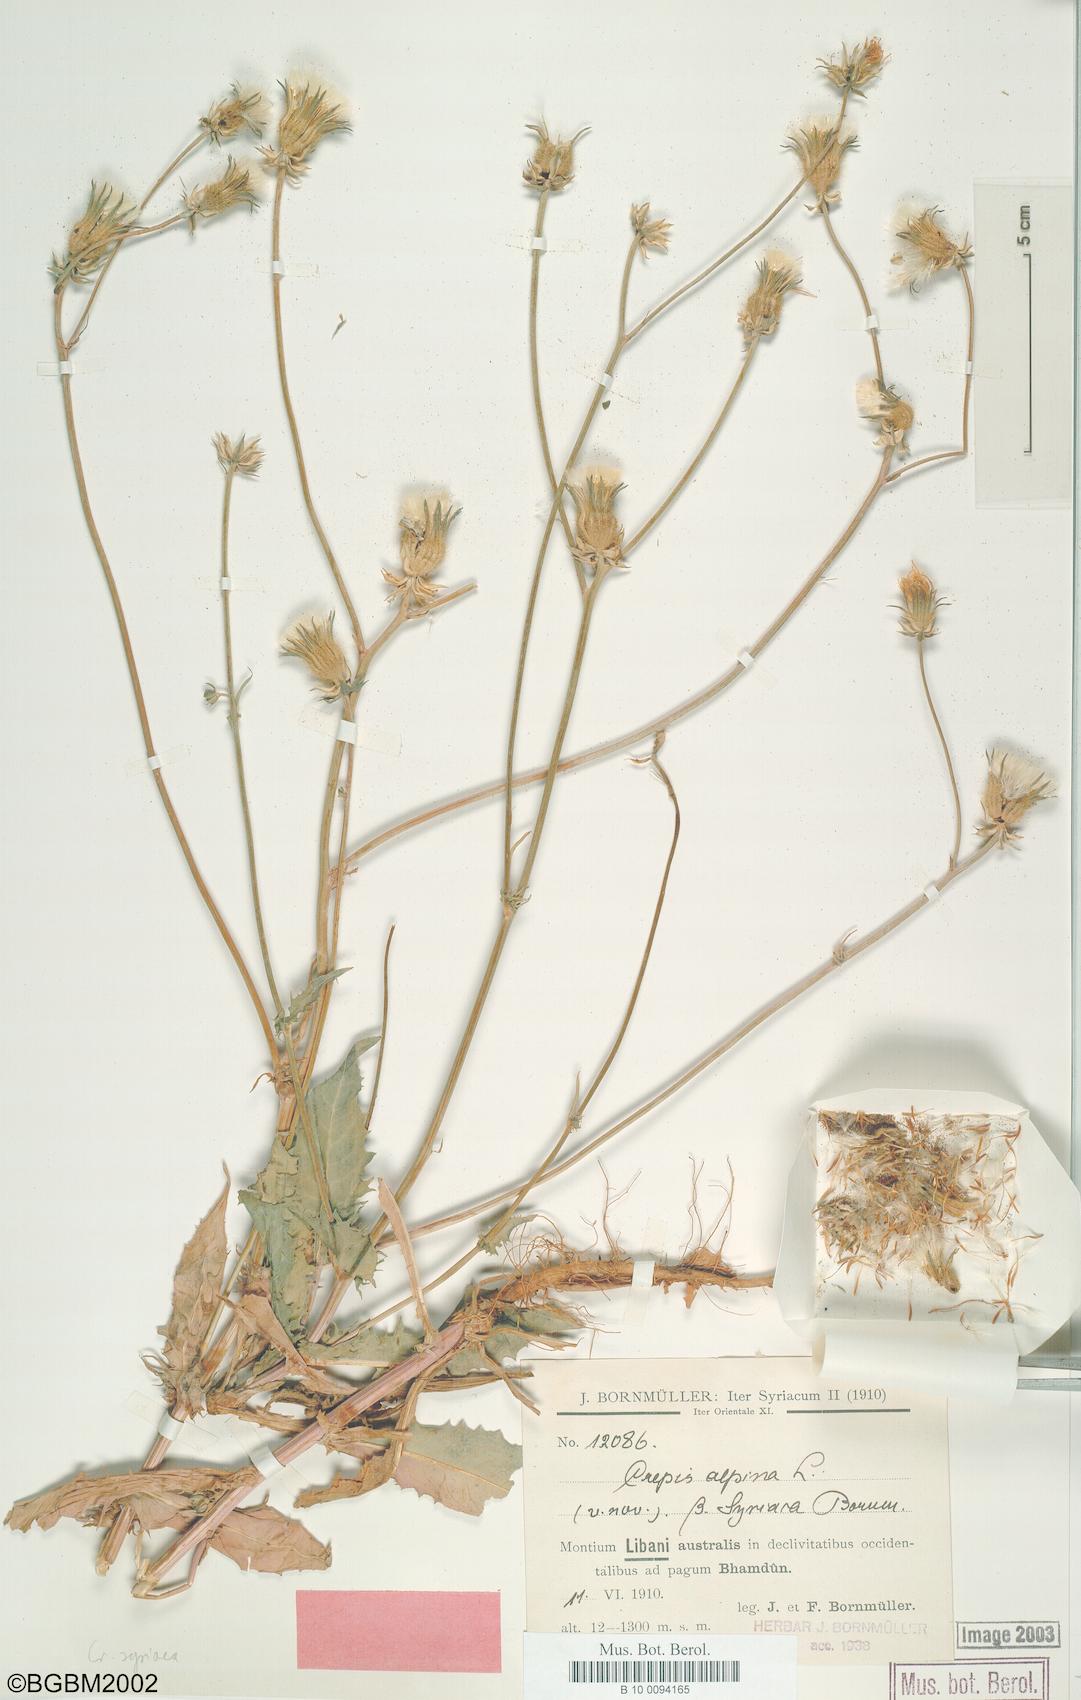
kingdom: Plantae
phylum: Tracheophyta
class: Magnoliopsida
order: Asterales
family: Asteraceae
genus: Crepis
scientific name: Crepis syriaca
